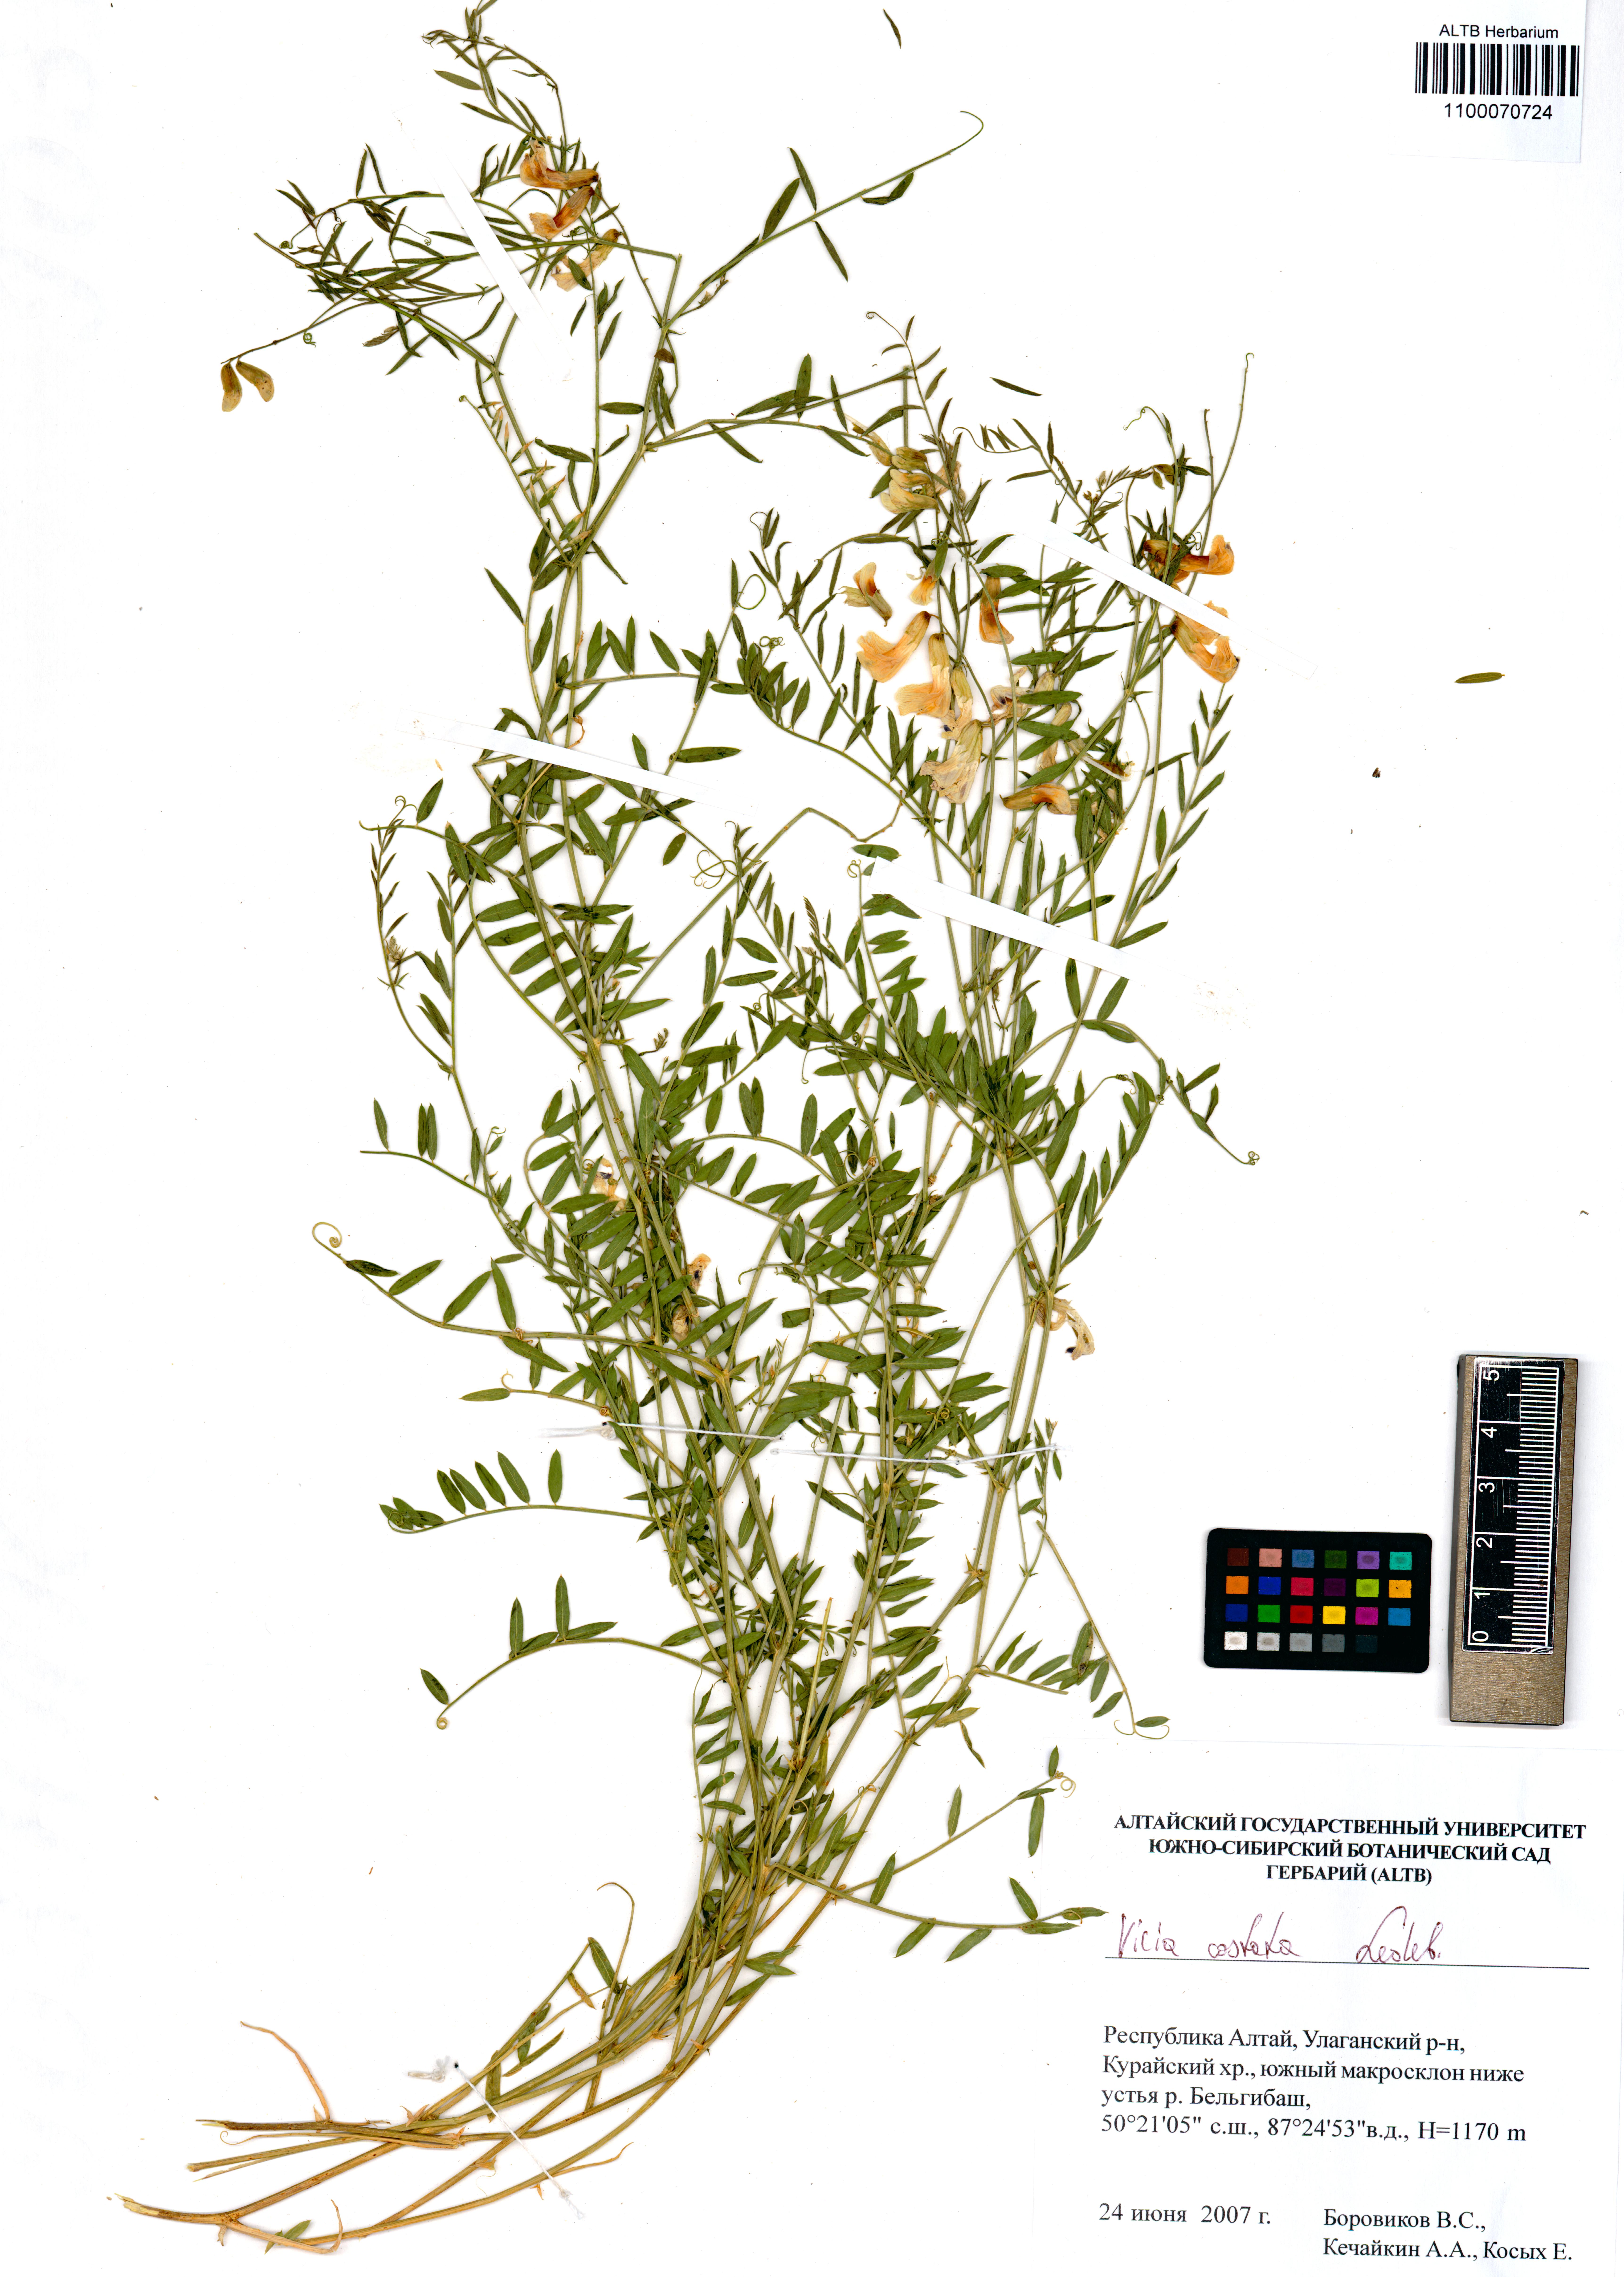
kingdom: Plantae
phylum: Tracheophyta
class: Magnoliopsida
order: Fabales
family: Fabaceae
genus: Vicia
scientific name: Vicia costata
